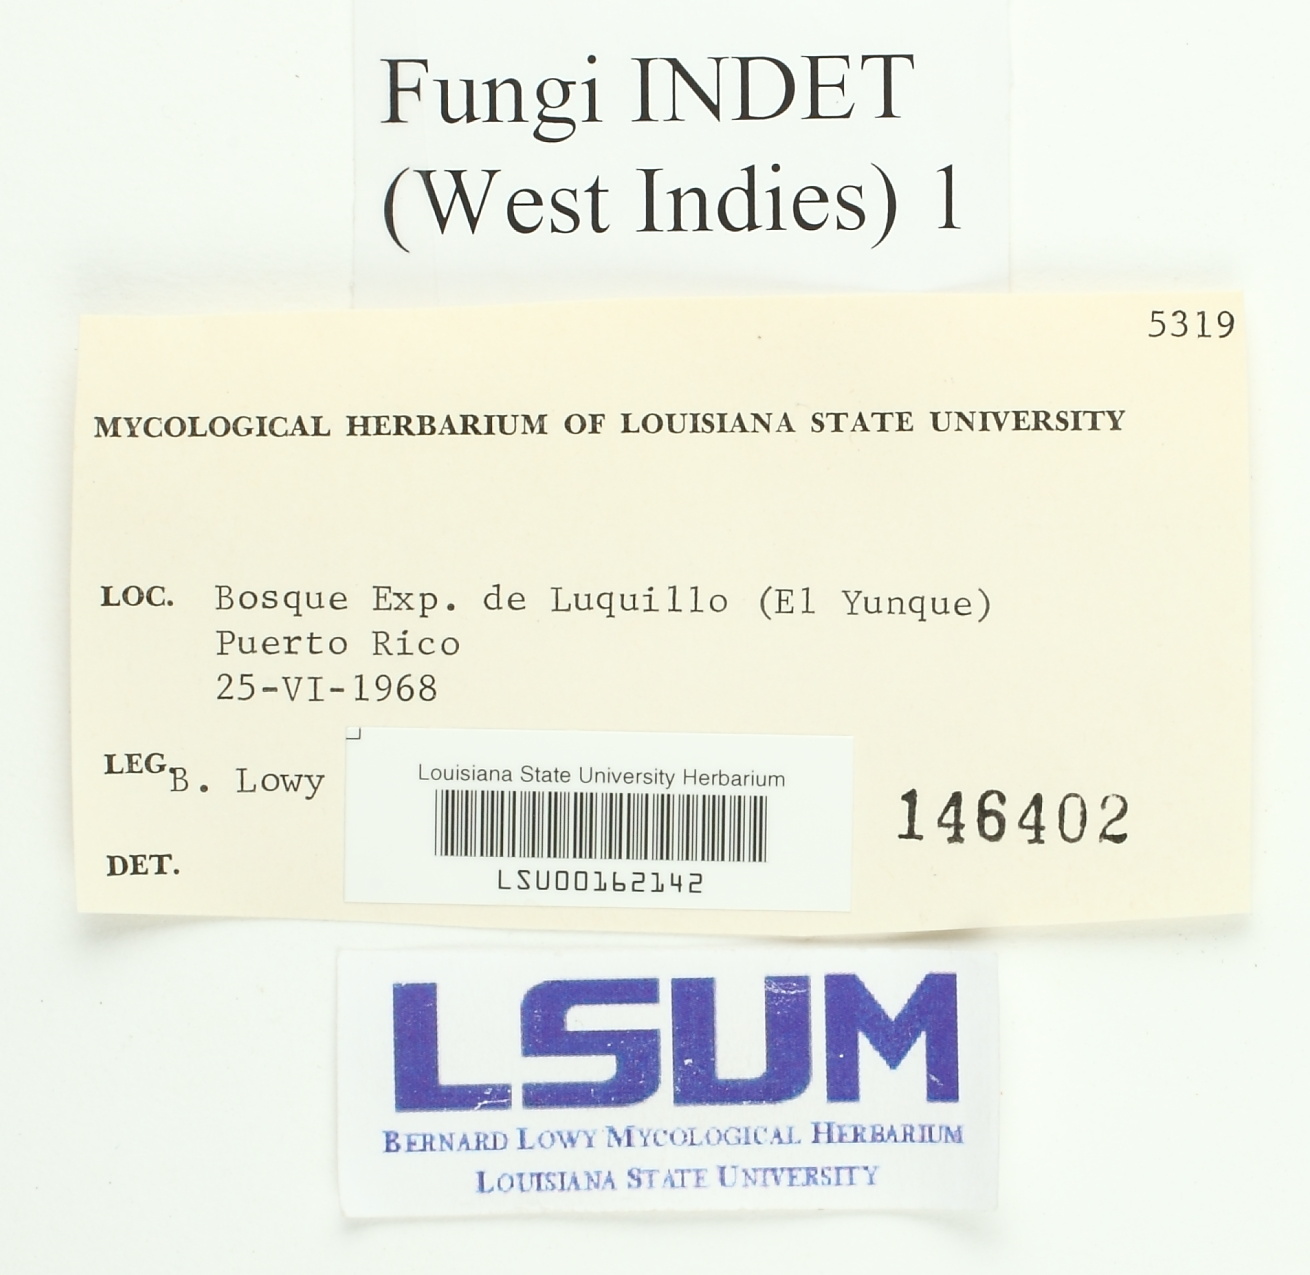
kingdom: Fungi
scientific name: Fungi
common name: Fungi
